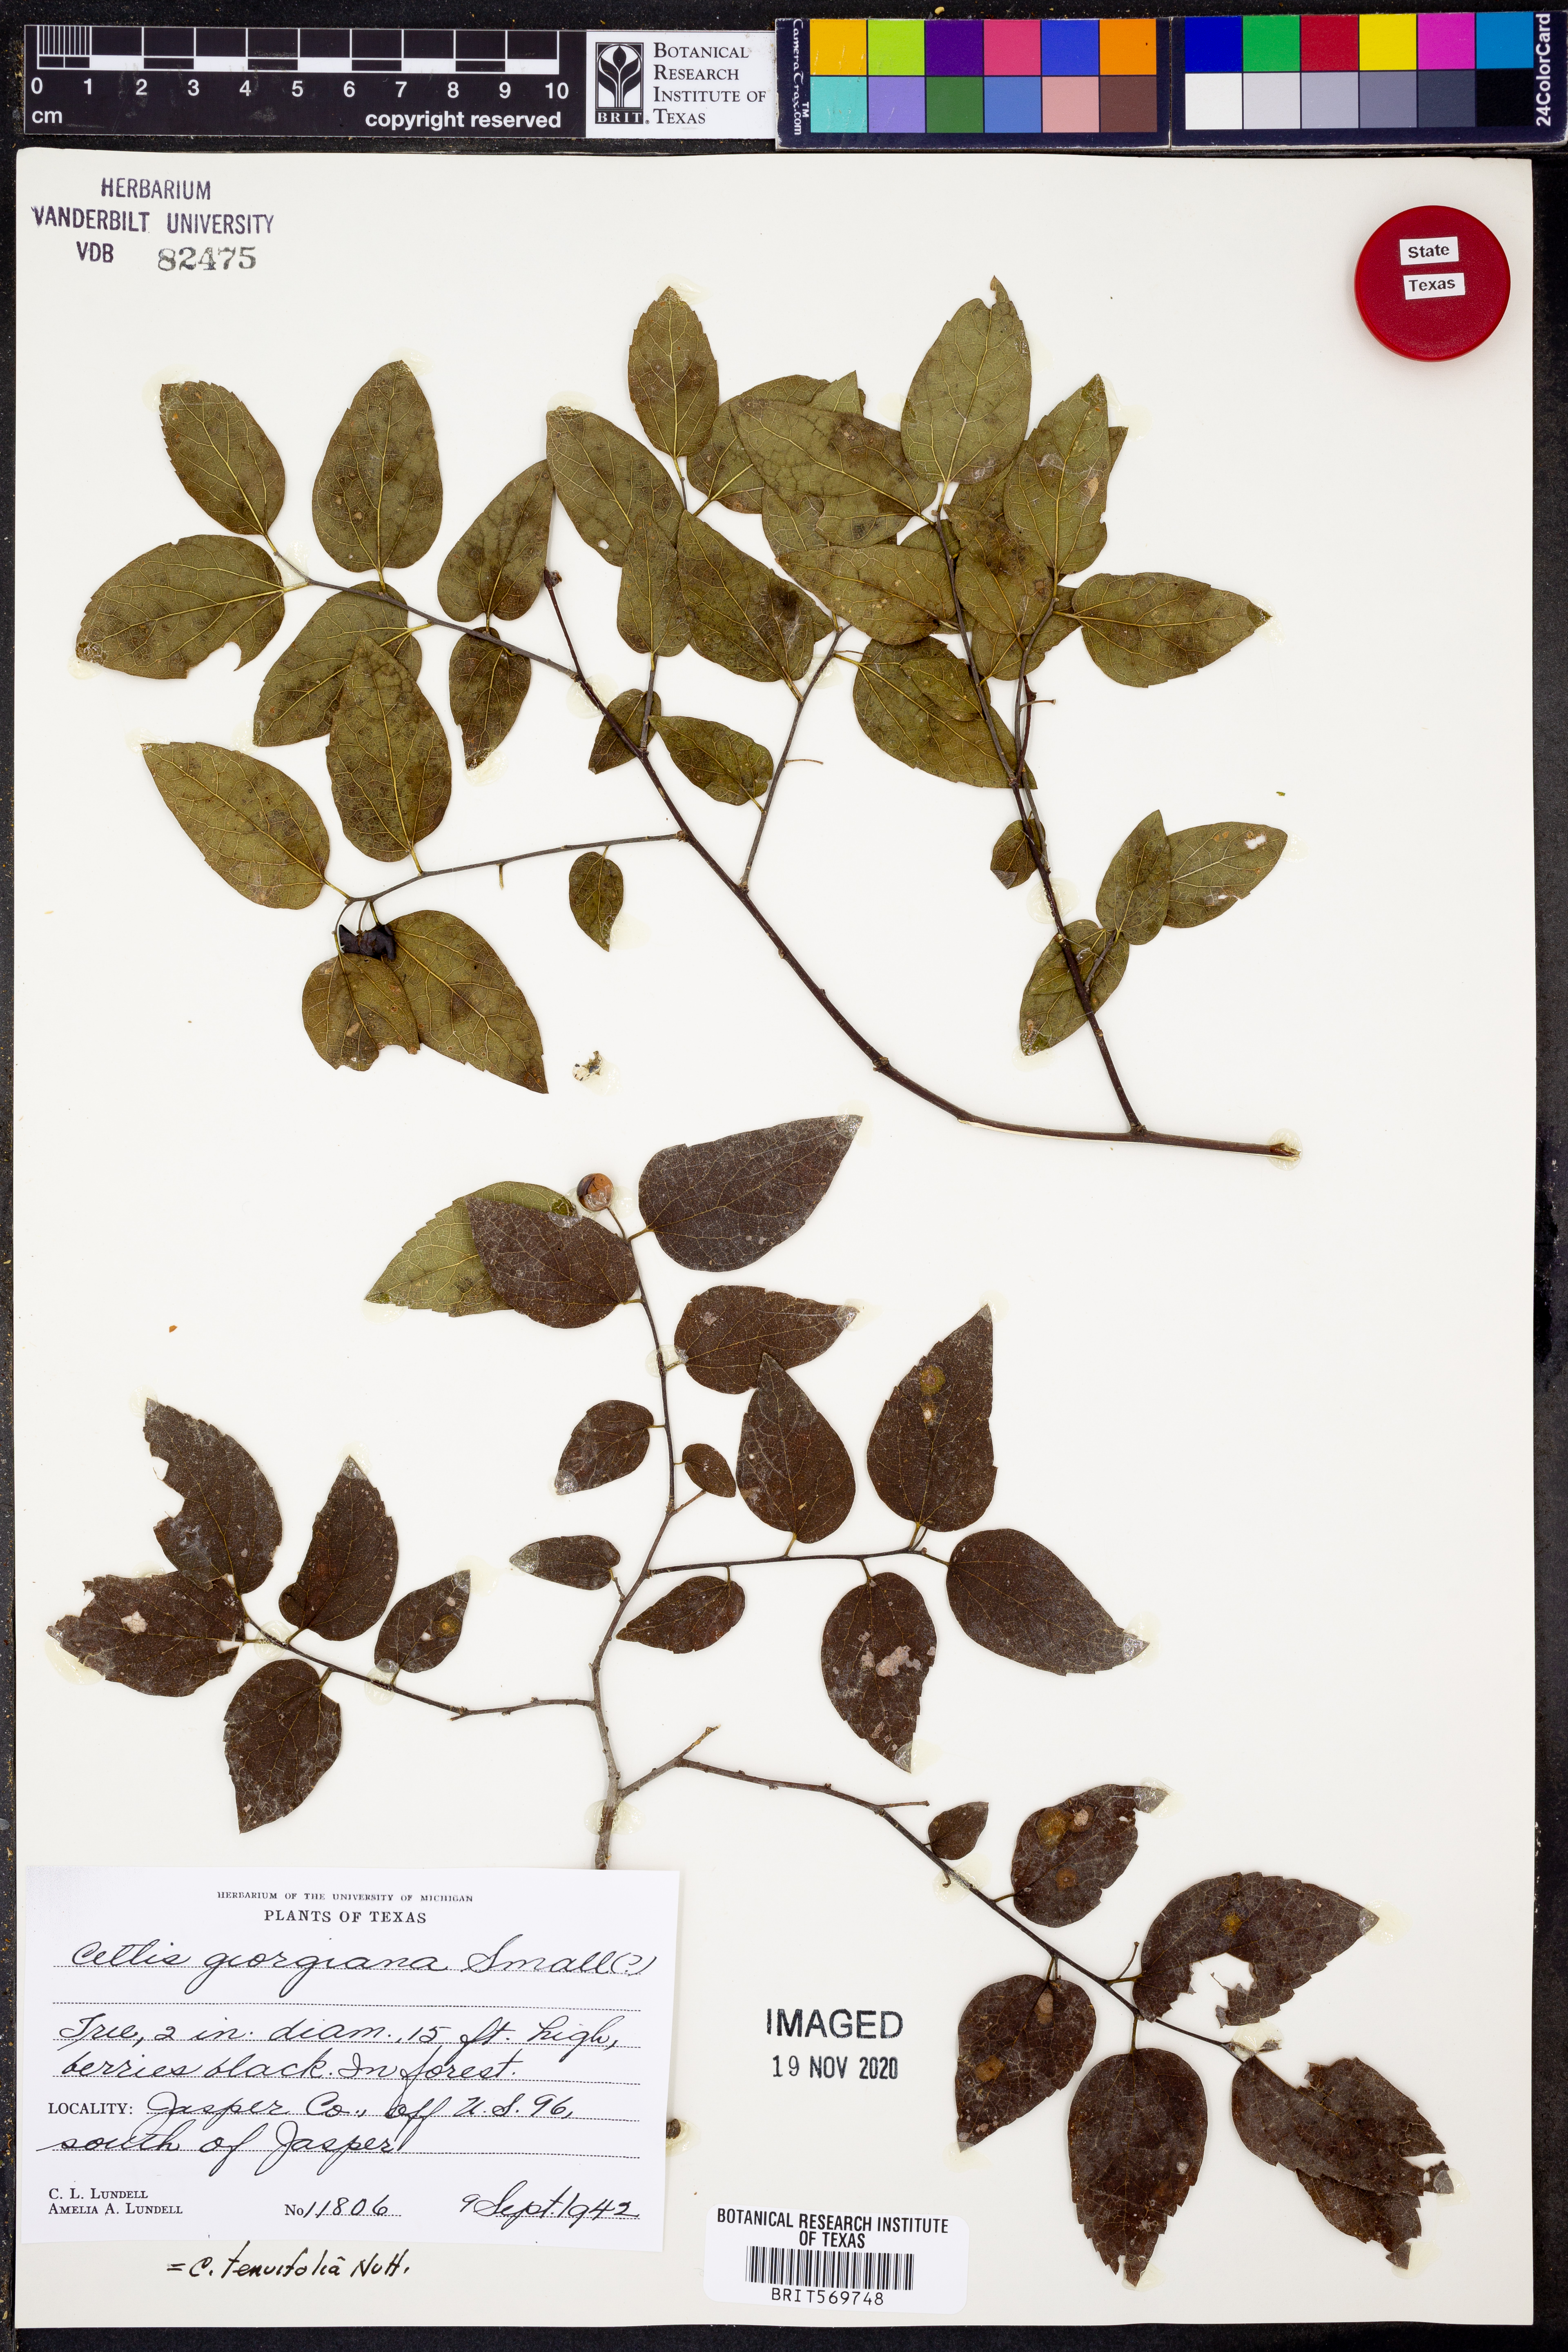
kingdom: Plantae
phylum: Tracheophyta
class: Magnoliopsida
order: Rosales
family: Cannabaceae
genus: Celtis
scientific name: Celtis tenuifolia
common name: Georgia hackberry
